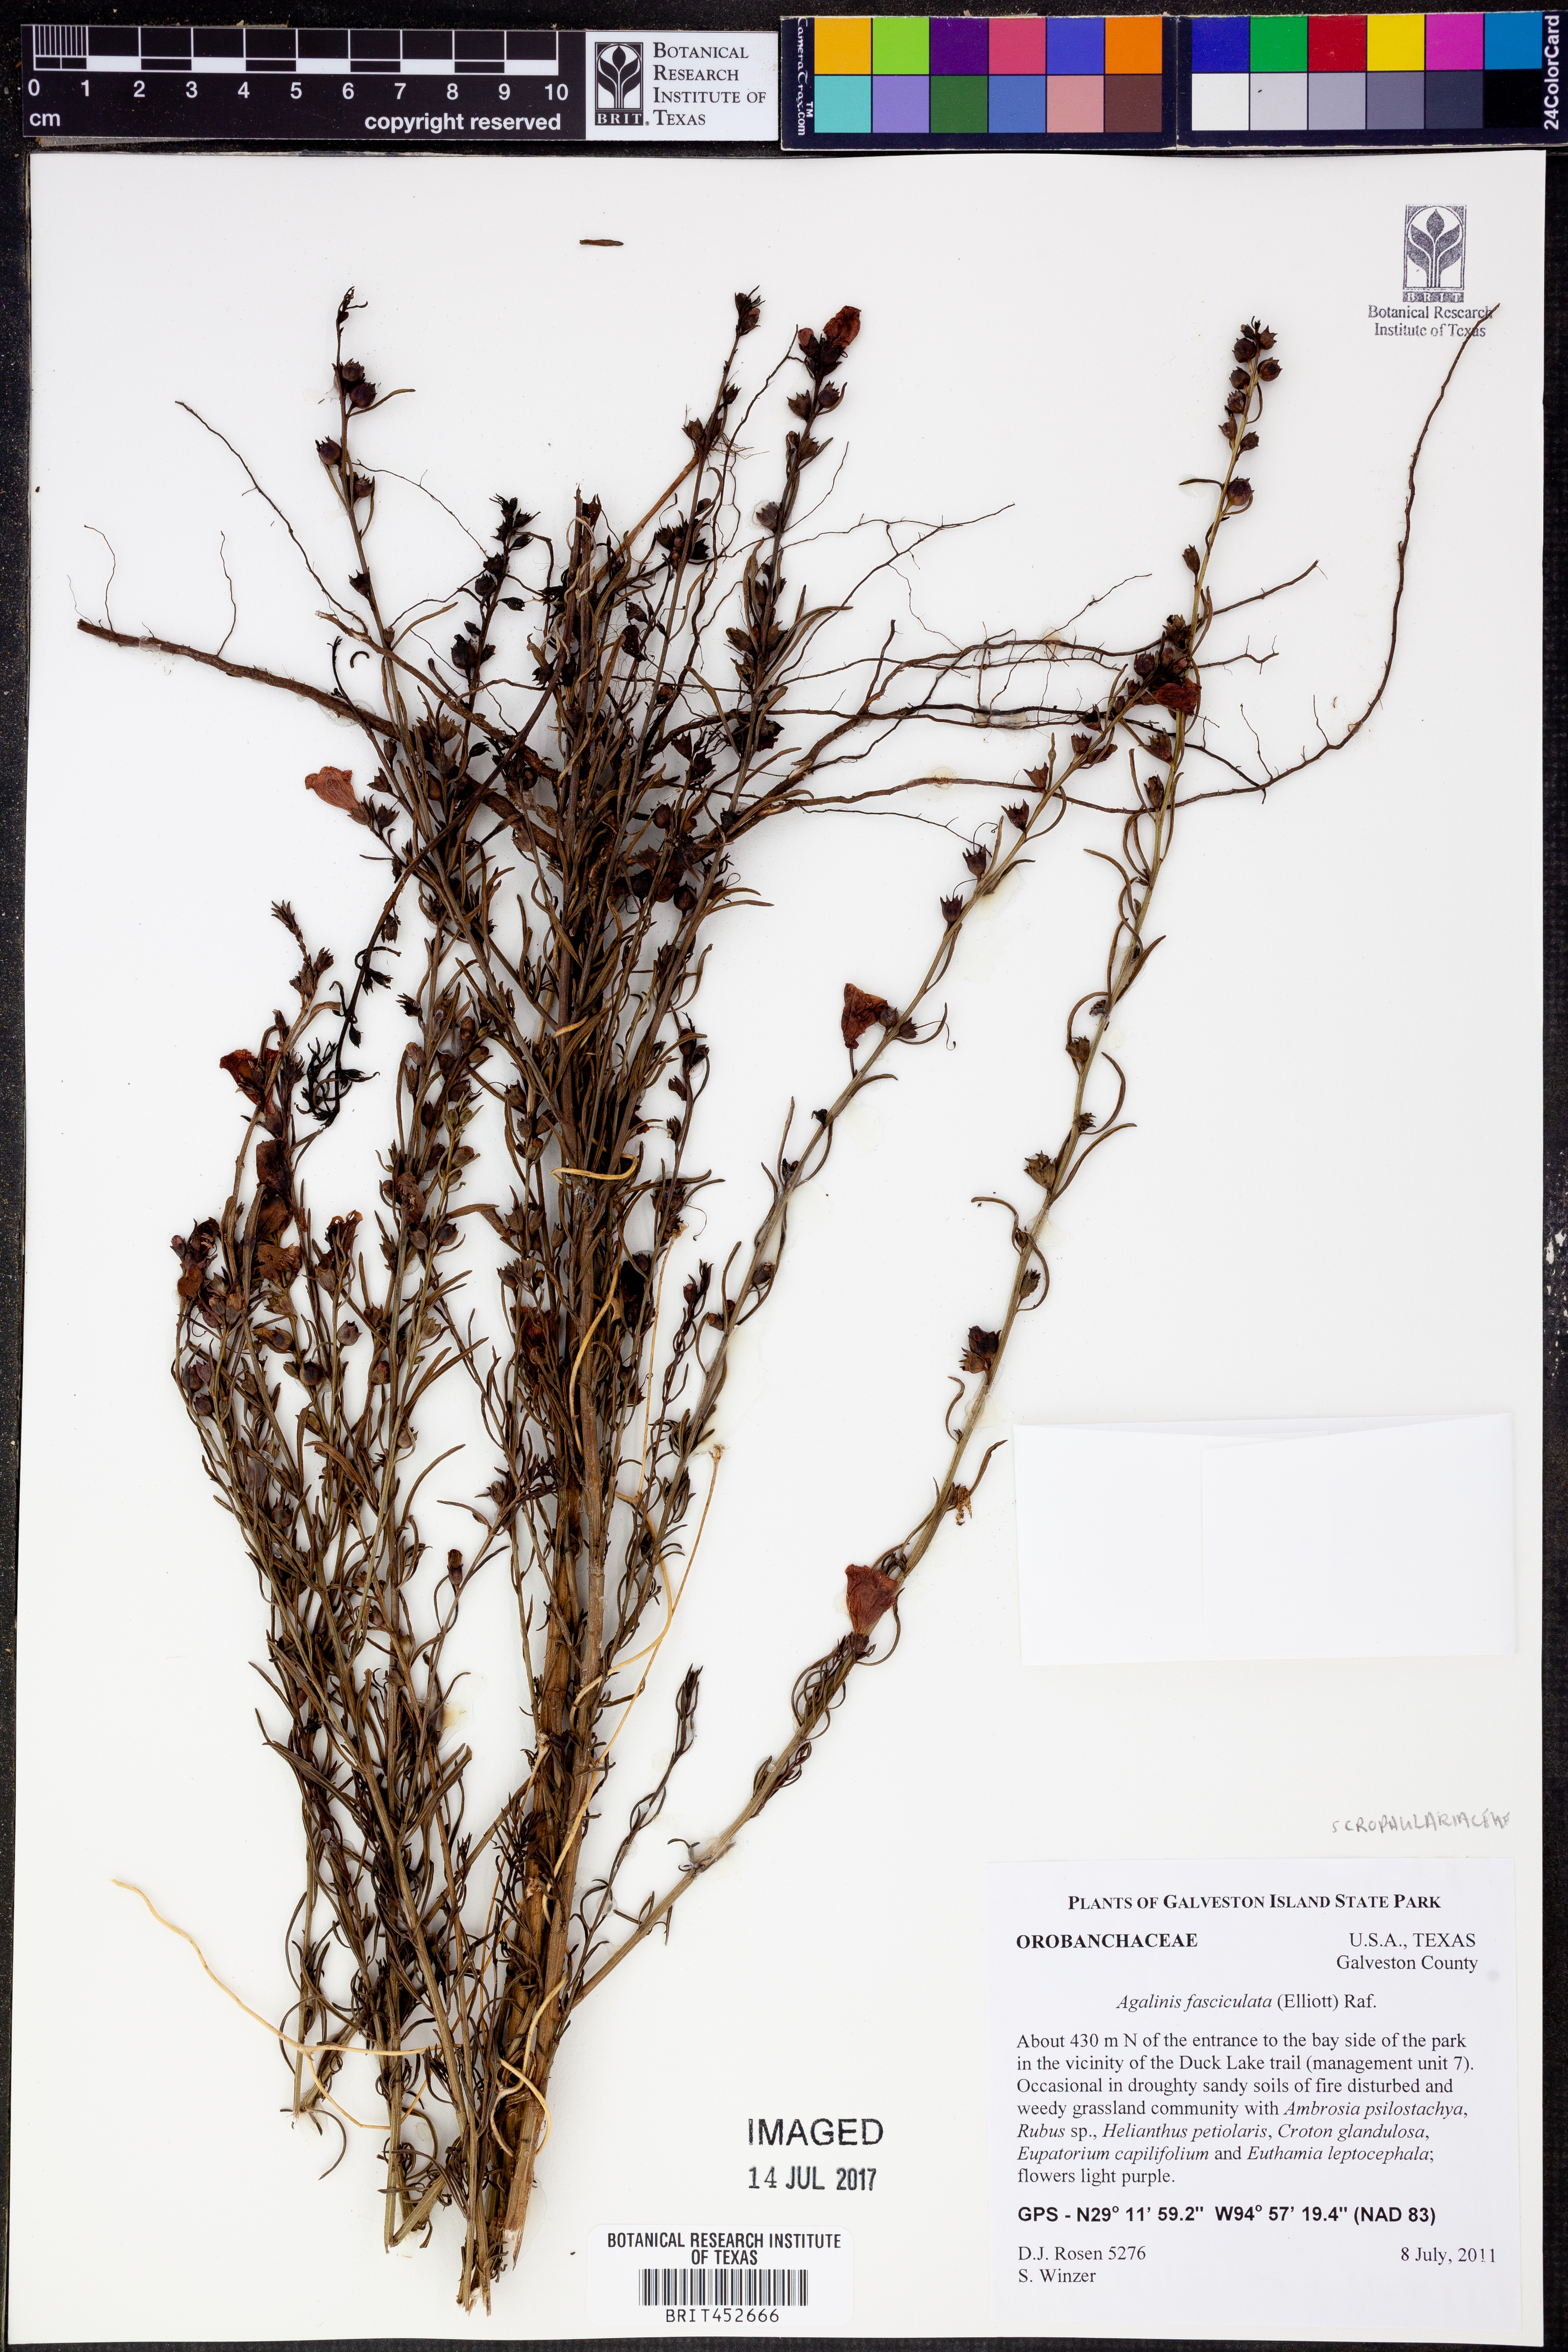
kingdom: Plantae
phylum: Tracheophyta
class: Magnoliopsida
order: Lamiales
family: Orobanchaceae
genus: Agalinis
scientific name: Agalinis fasciculata
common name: Beach false foxglove
